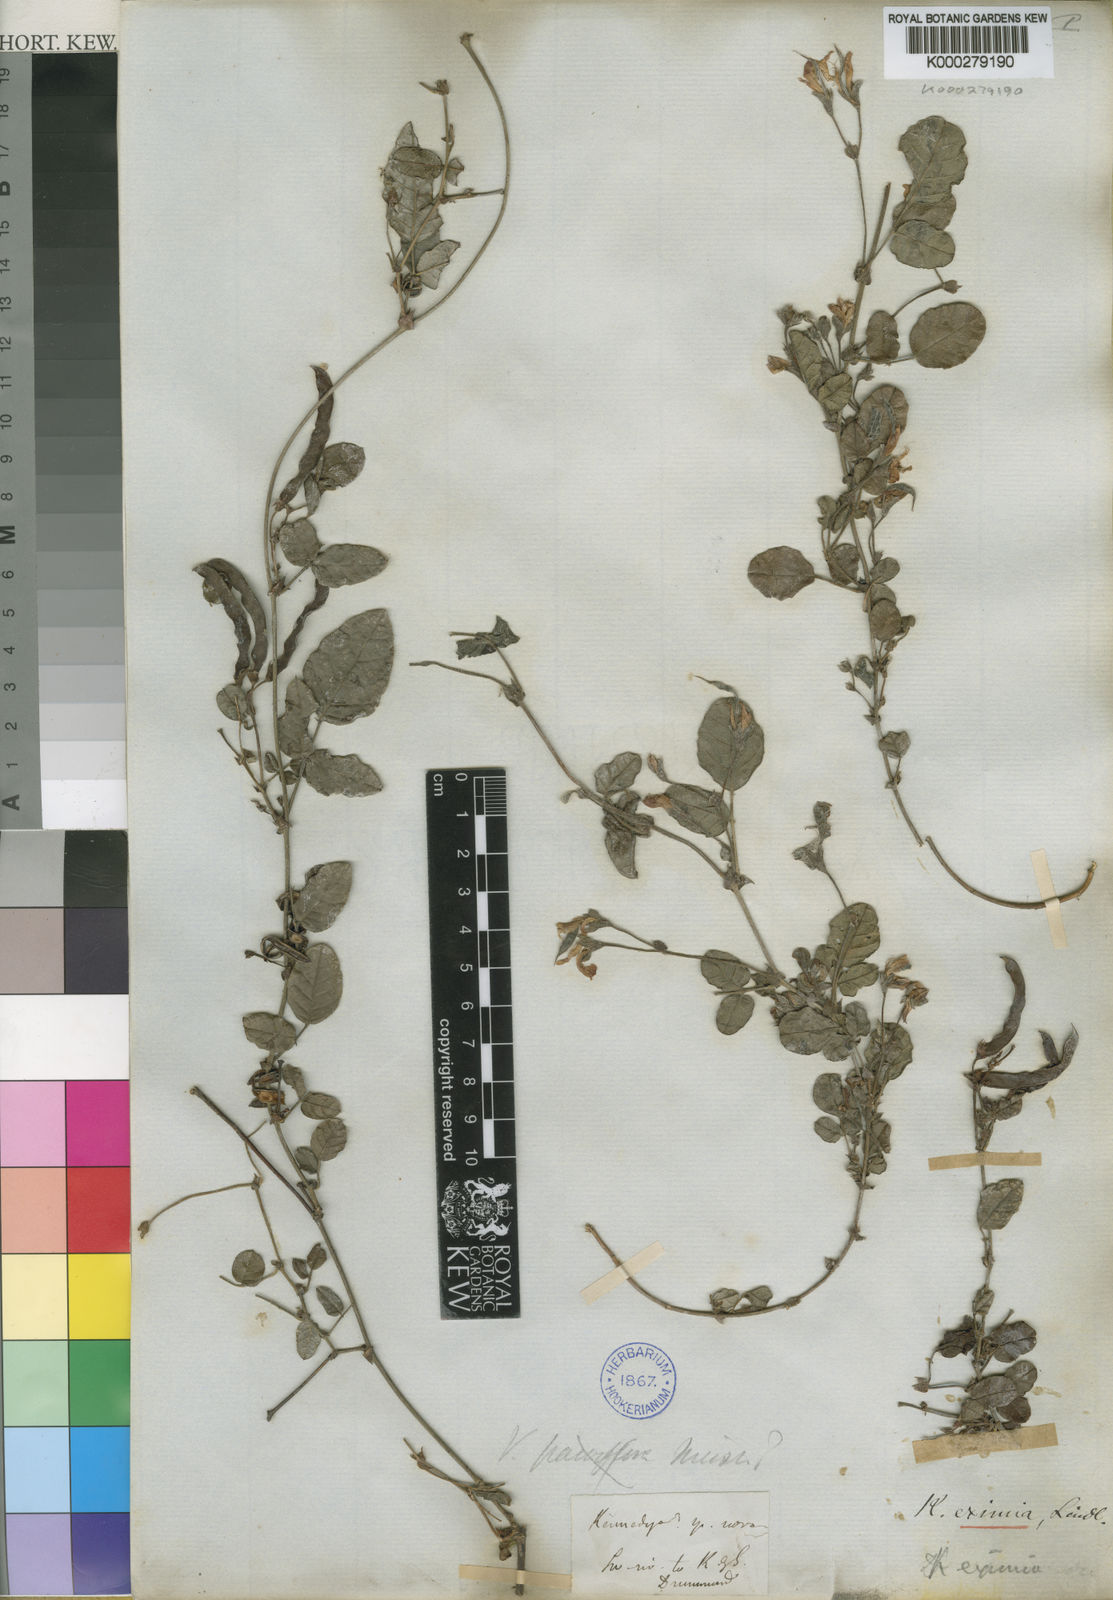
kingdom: Plantae
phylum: Tracheophyta
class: Magnoliopsida
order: Fabales
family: Fabaceae
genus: Kennedia
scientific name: Kennedia
